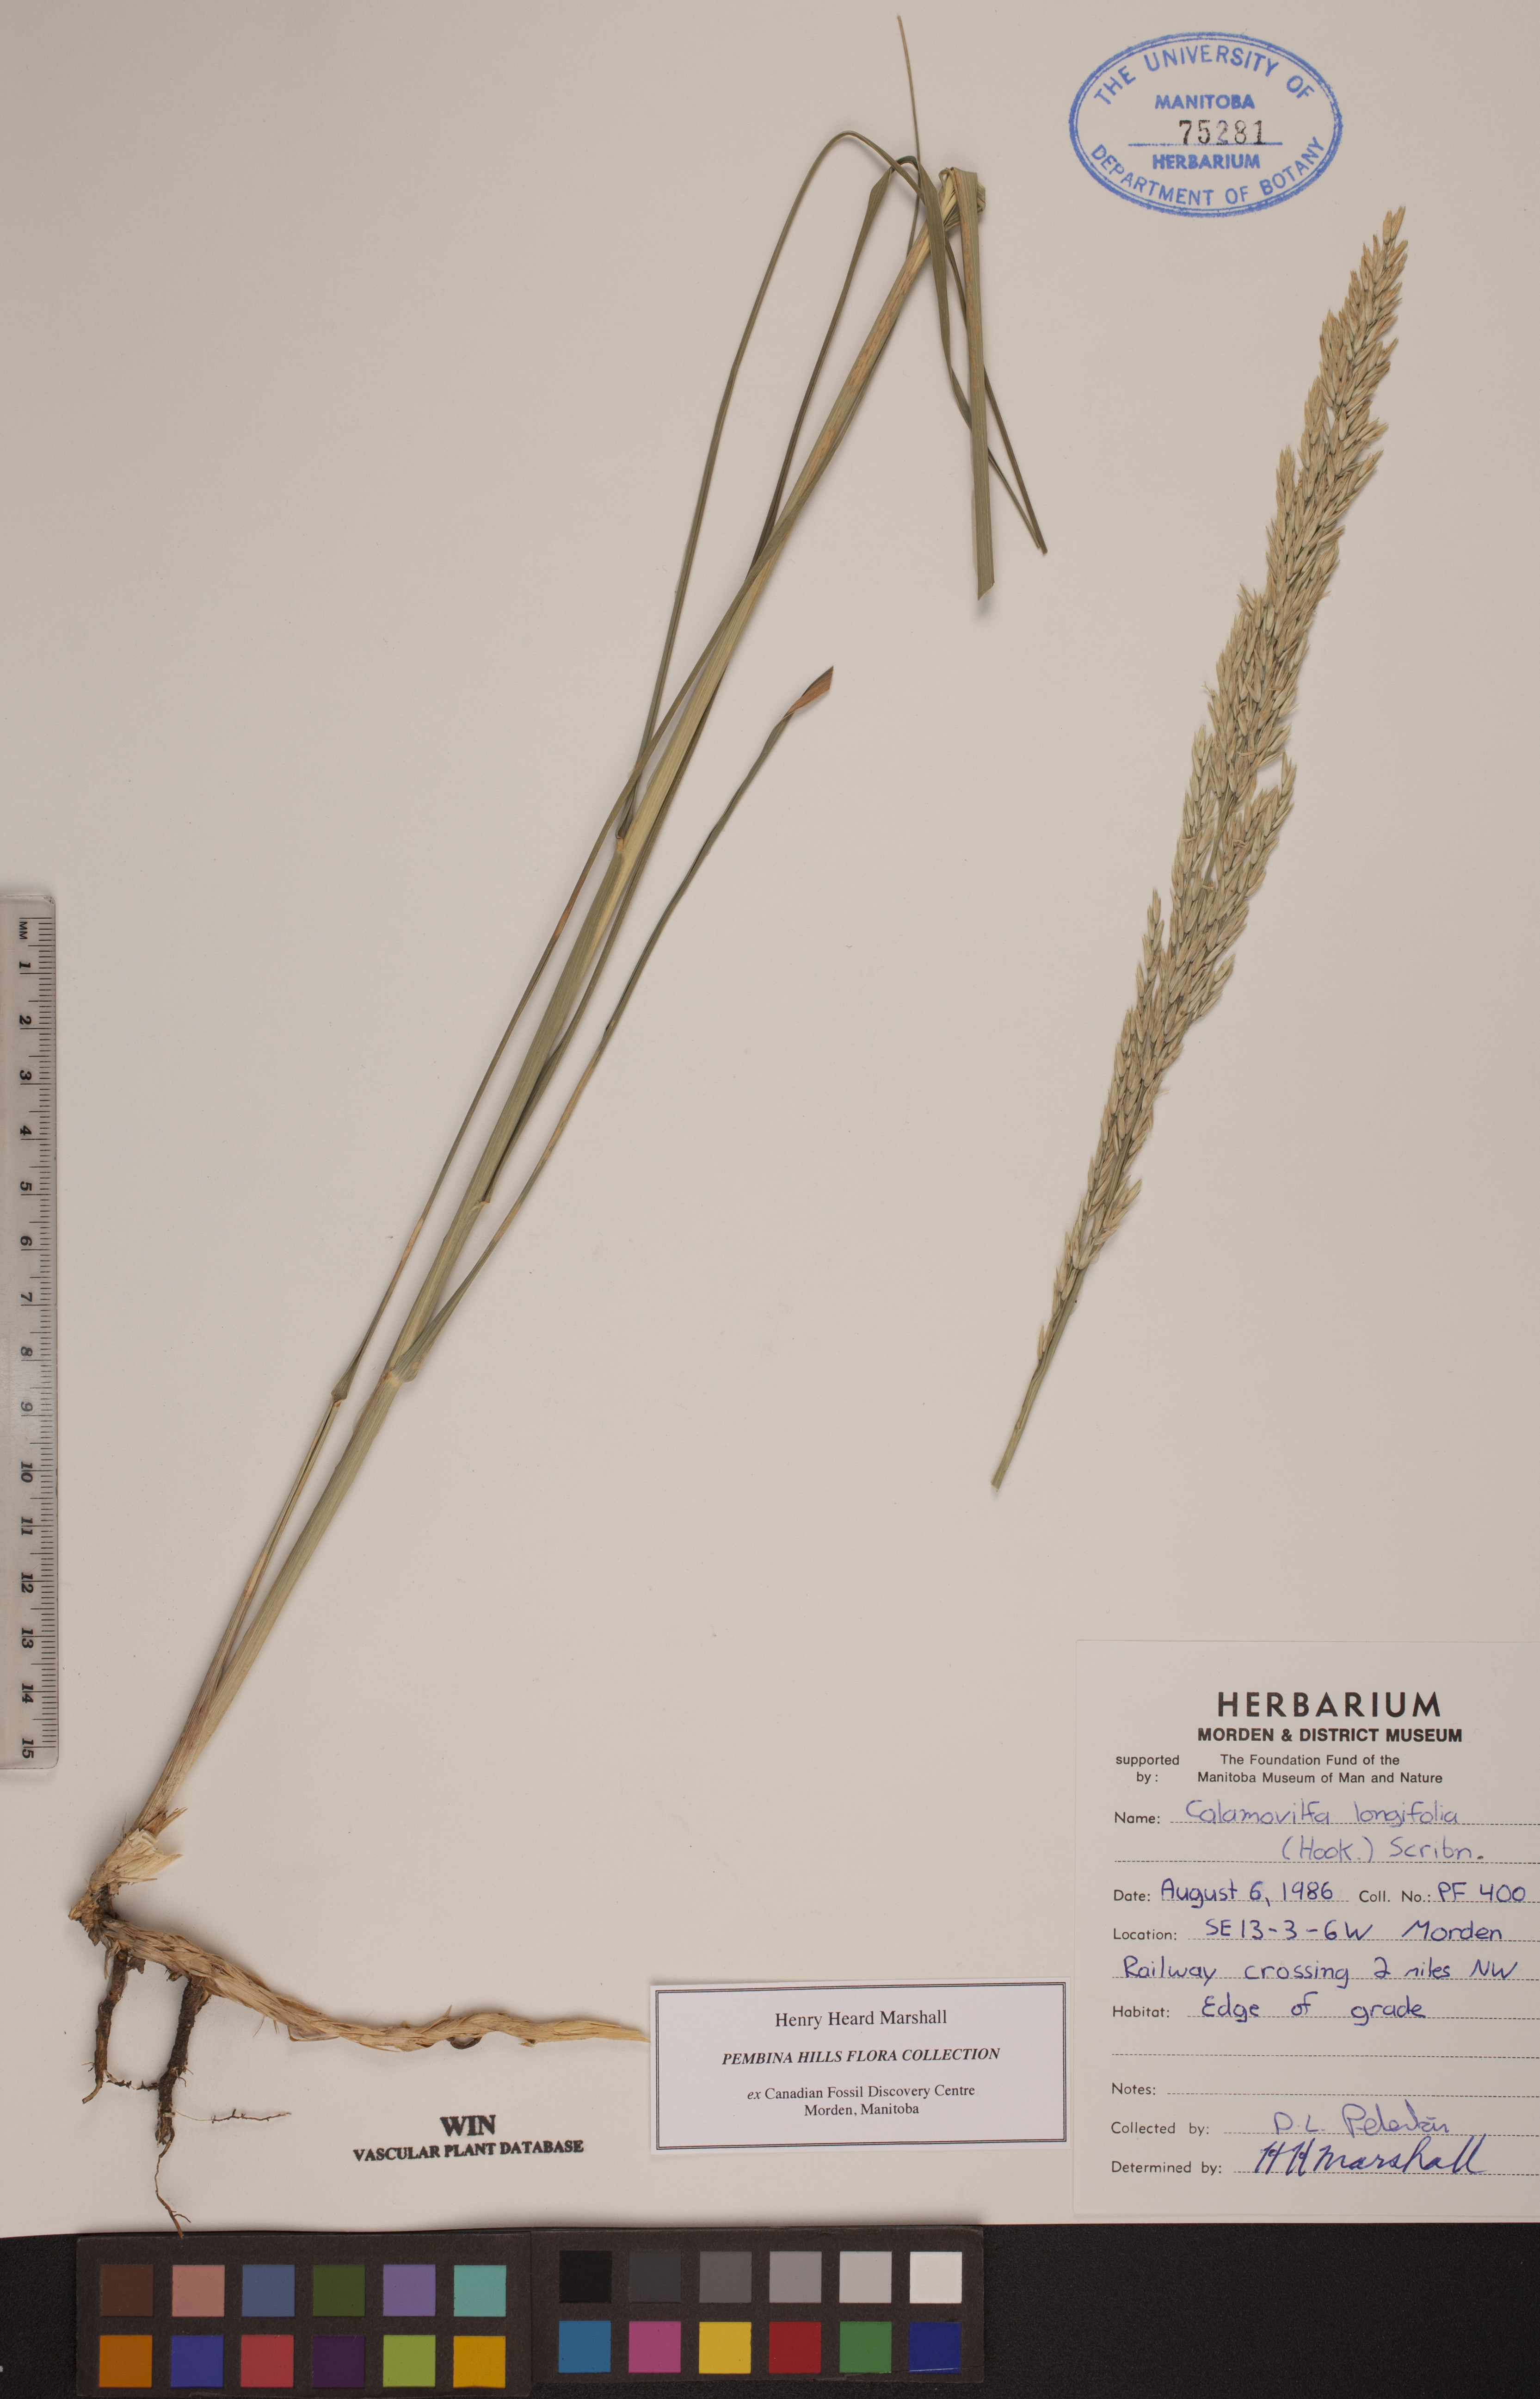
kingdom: Plantae
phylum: Tracheophyta
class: Liliopsida
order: Poales
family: Poaceae
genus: Sporobolus
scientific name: Sporobolus rigidus
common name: Prairie sandreed
